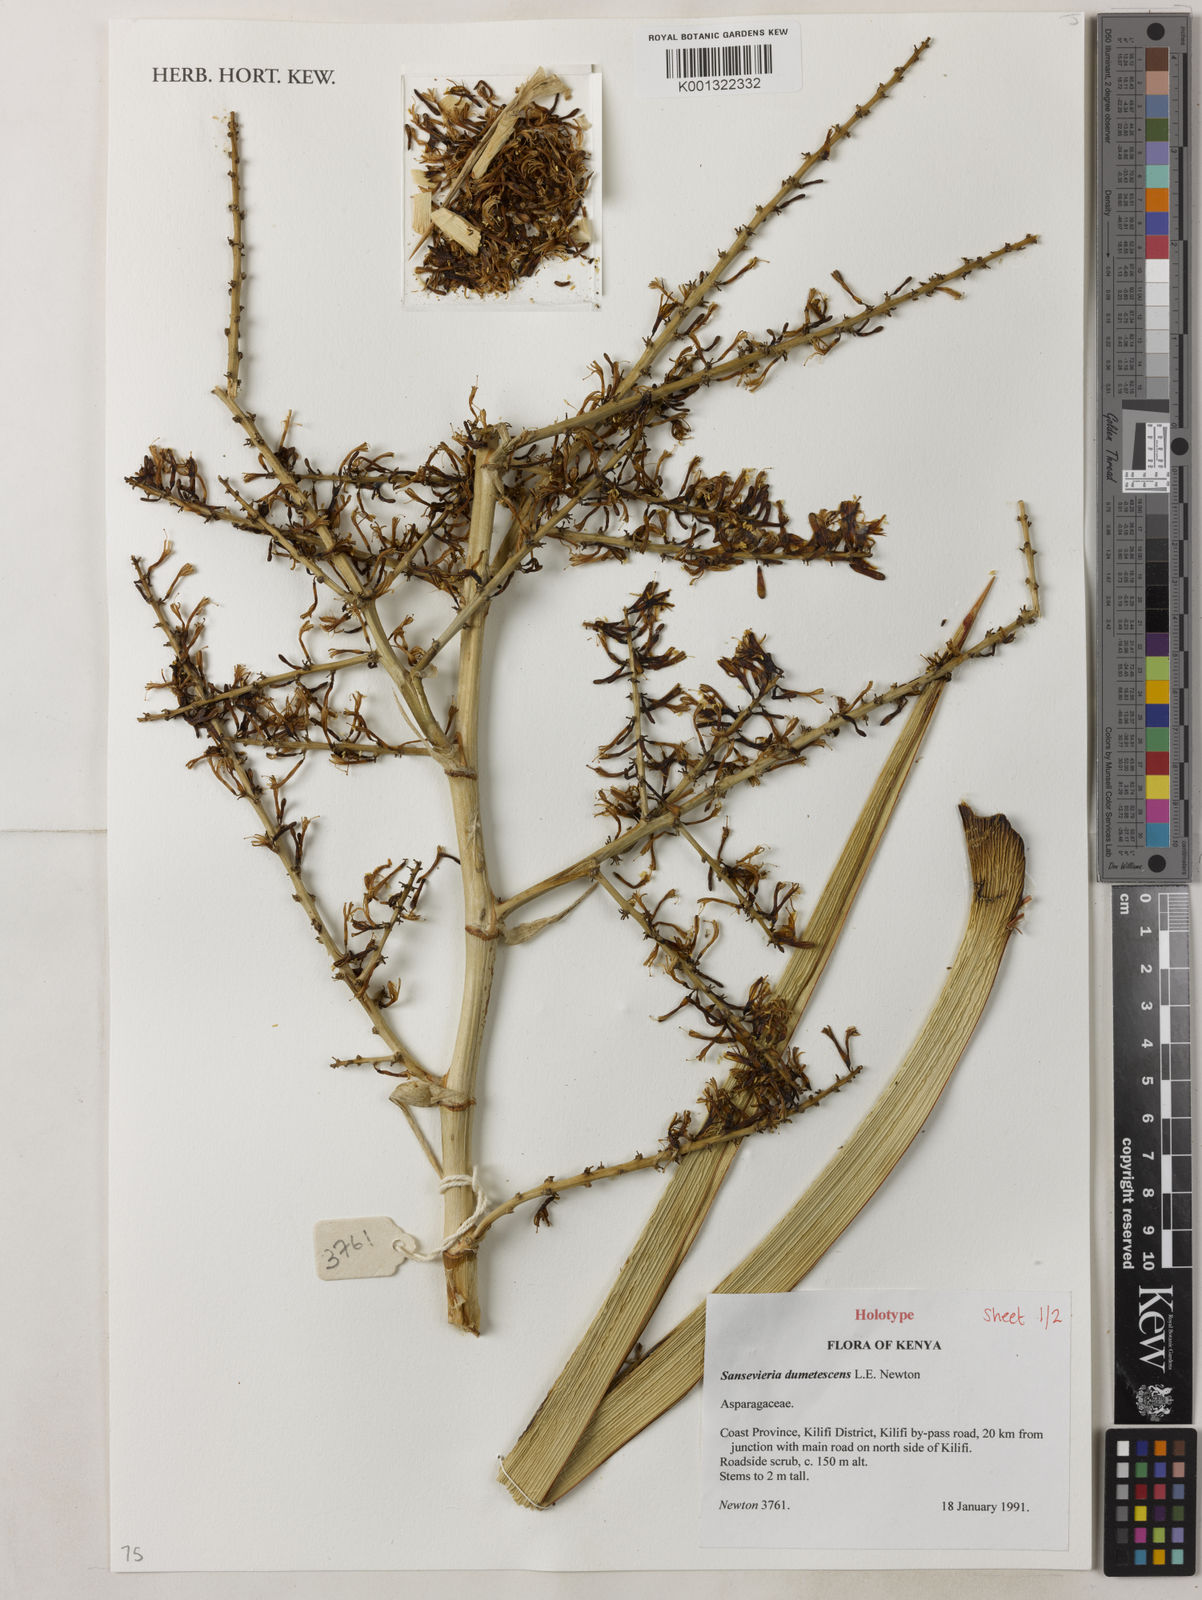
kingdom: Plantae
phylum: Tracheophyta
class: Liliopsida
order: Asparagales
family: Asparagaceae
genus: Dracaena
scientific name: Dracaena dumetescens
